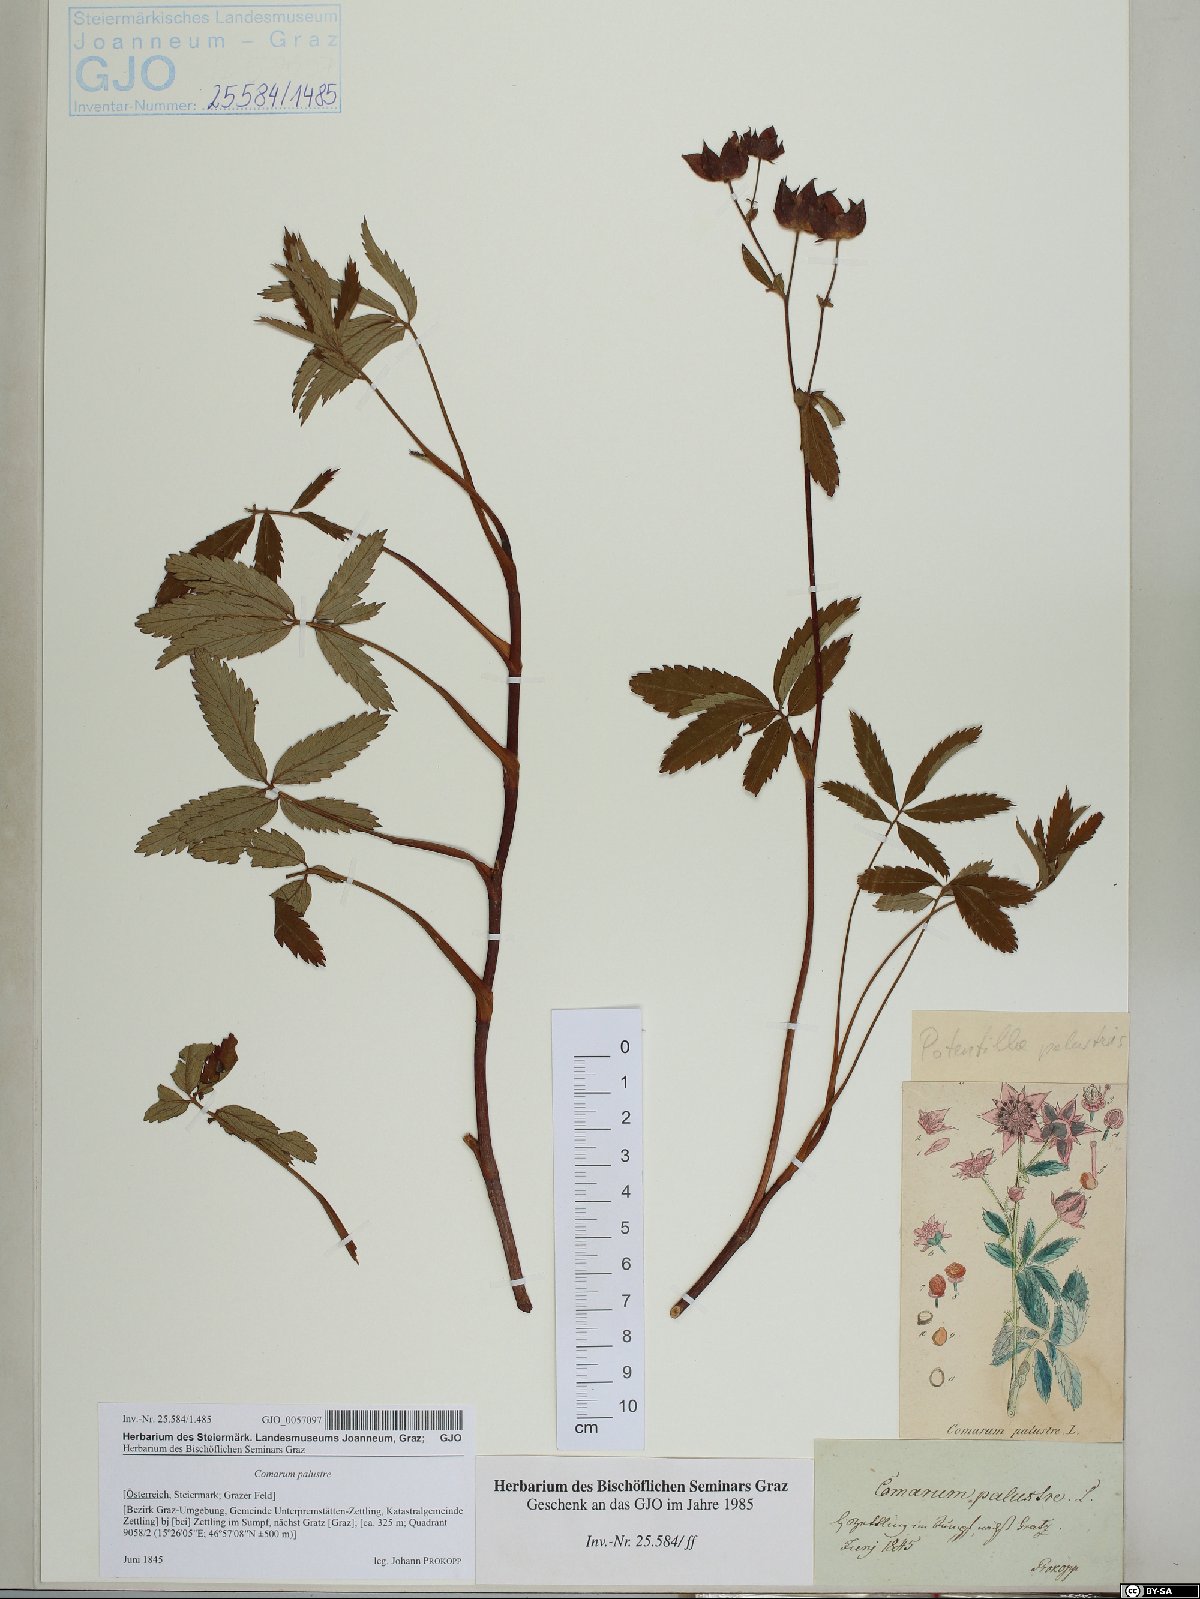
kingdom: Plantae
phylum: Tracheophyta
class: Magnoliopsida
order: Rosales
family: Rosaceae
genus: Comarum
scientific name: Comarum palustre
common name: Marsh cinquefoil
